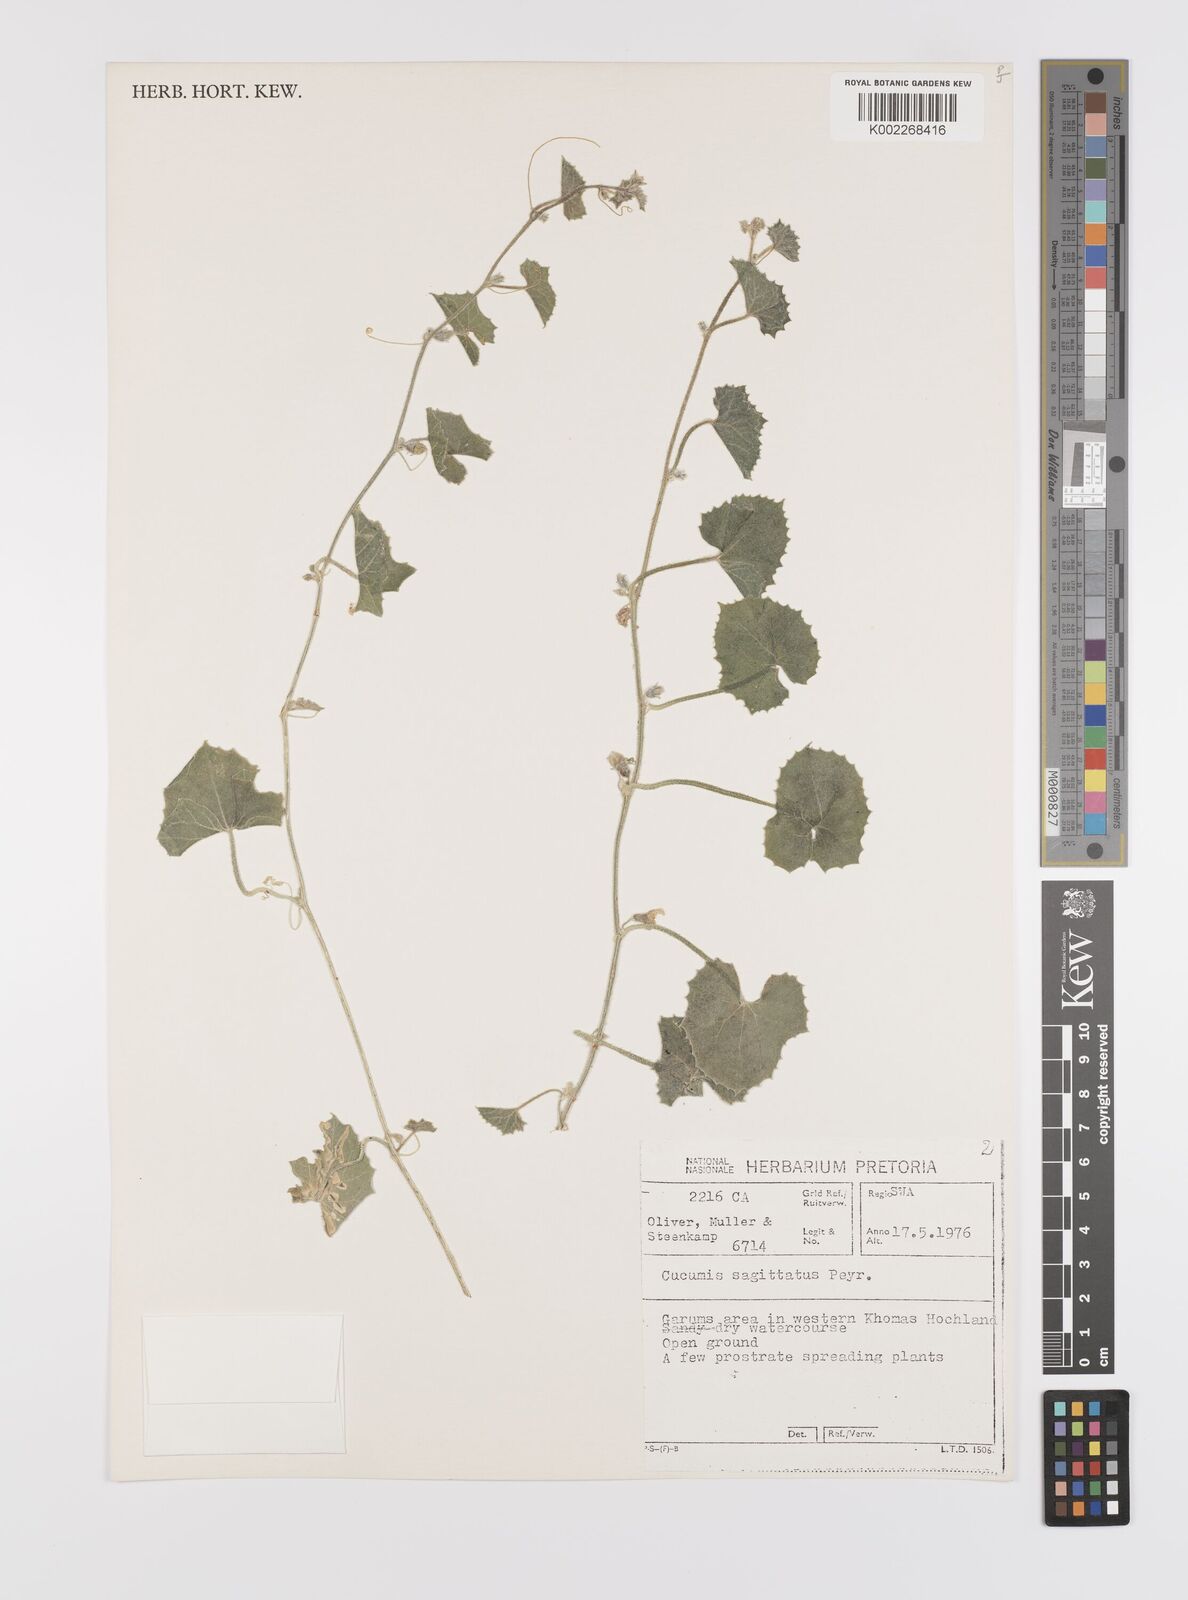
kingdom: Plantae
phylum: Tracheophyta
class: Magnoliopsida
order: Cucurbitales
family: Cucurbitaceae
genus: Cucumis
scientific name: Cucumis sagittatus
